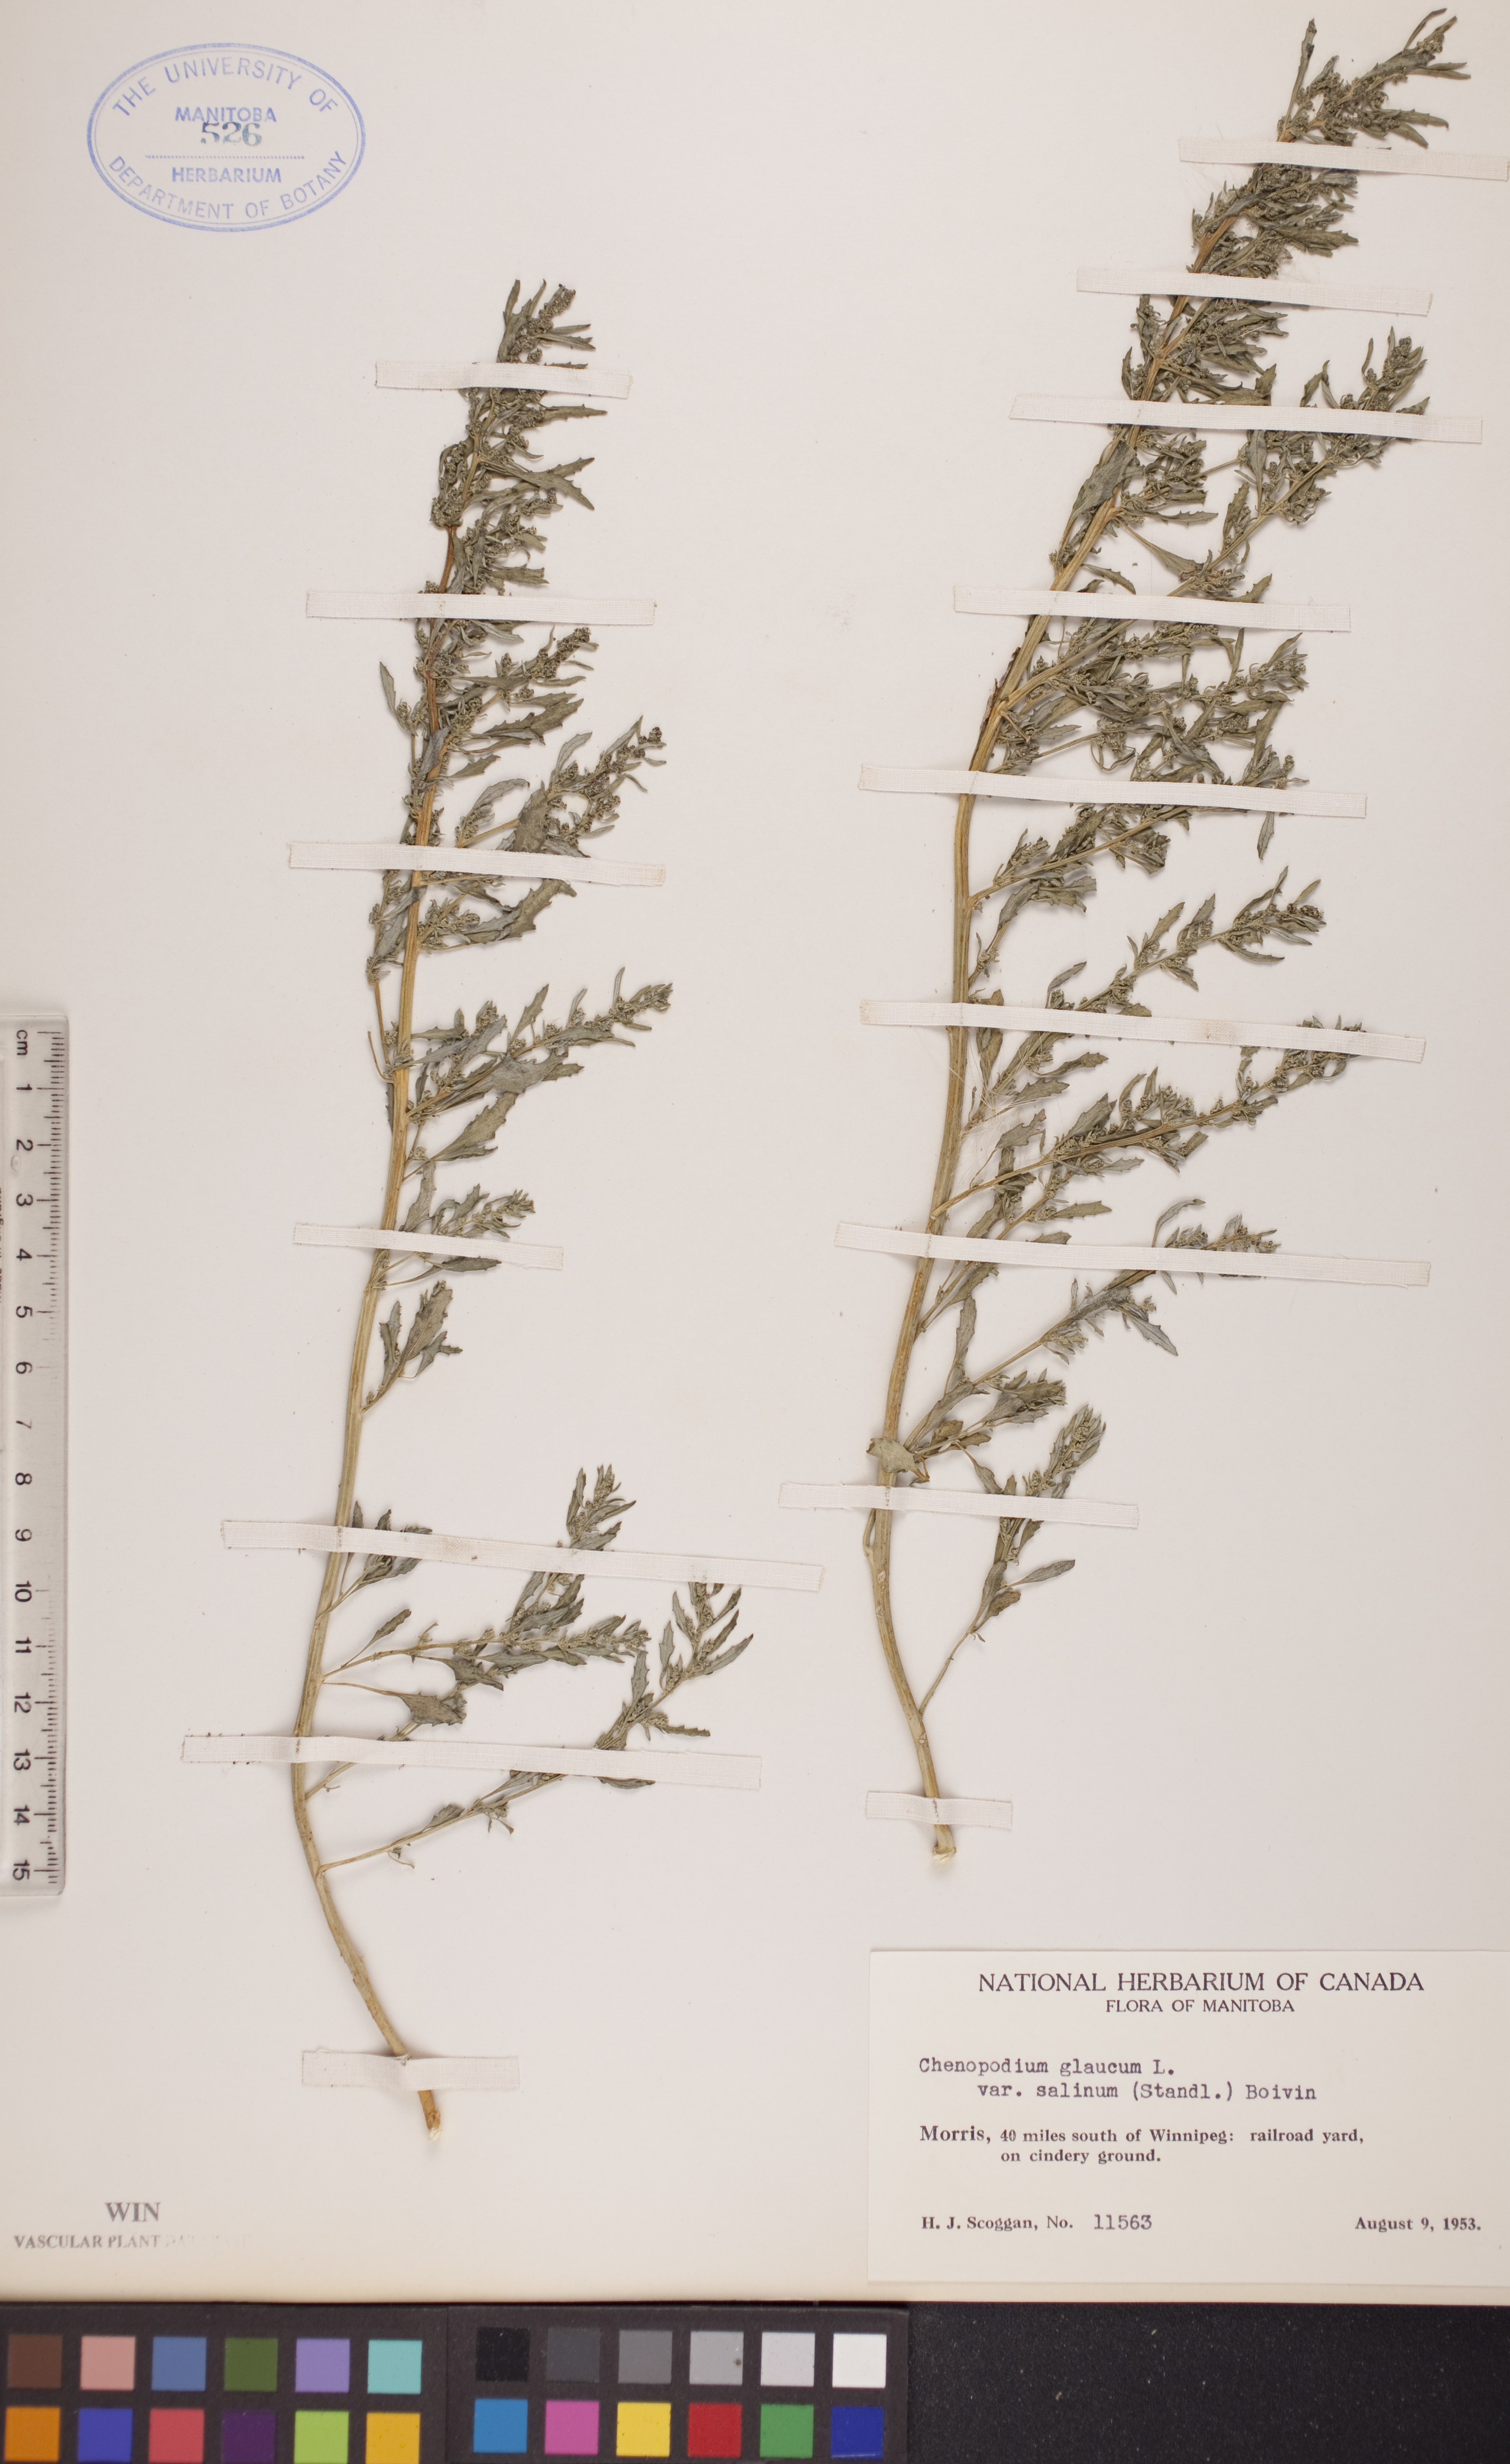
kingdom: Plantae
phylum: Tracheophyta
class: Magnoliopsida
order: Caryophyllales
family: Amaranthaceae
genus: Oxybasis
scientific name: Oxybasis salina
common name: Rocky mountain goosefoot
